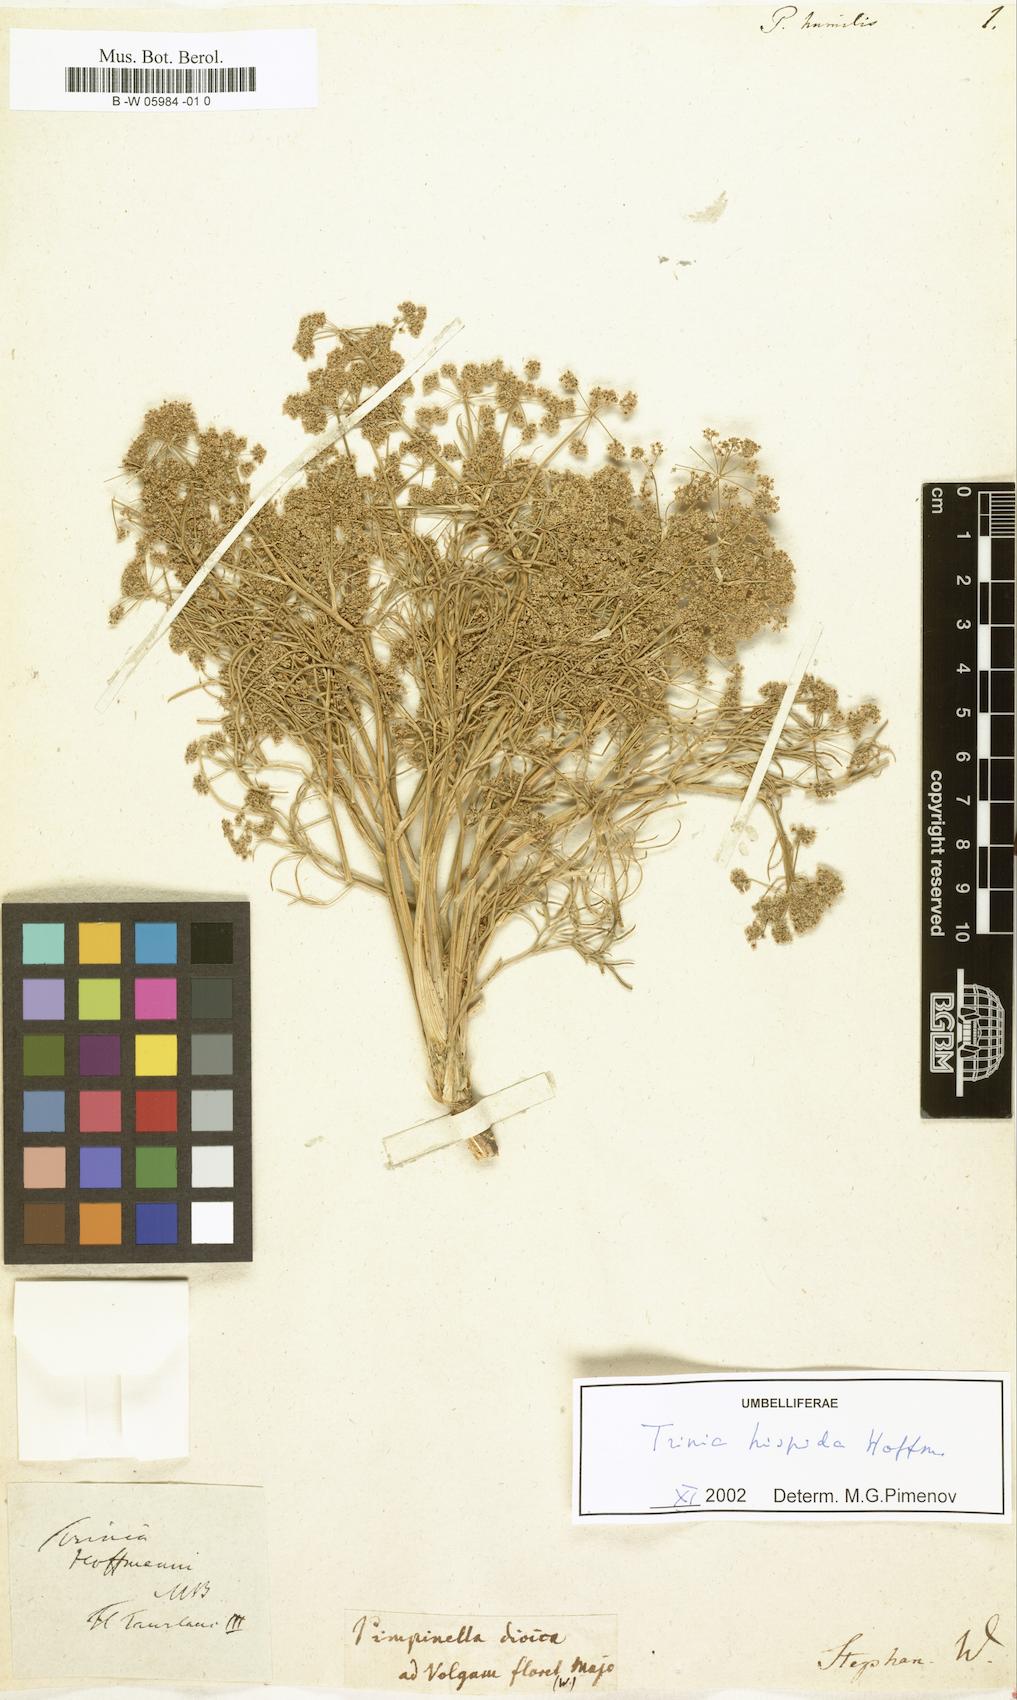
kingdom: Plantae
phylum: Tracheophyta
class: Magnoliopsida
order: Apiales
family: Apiaceae
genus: Trinia
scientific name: Trinia hispida
